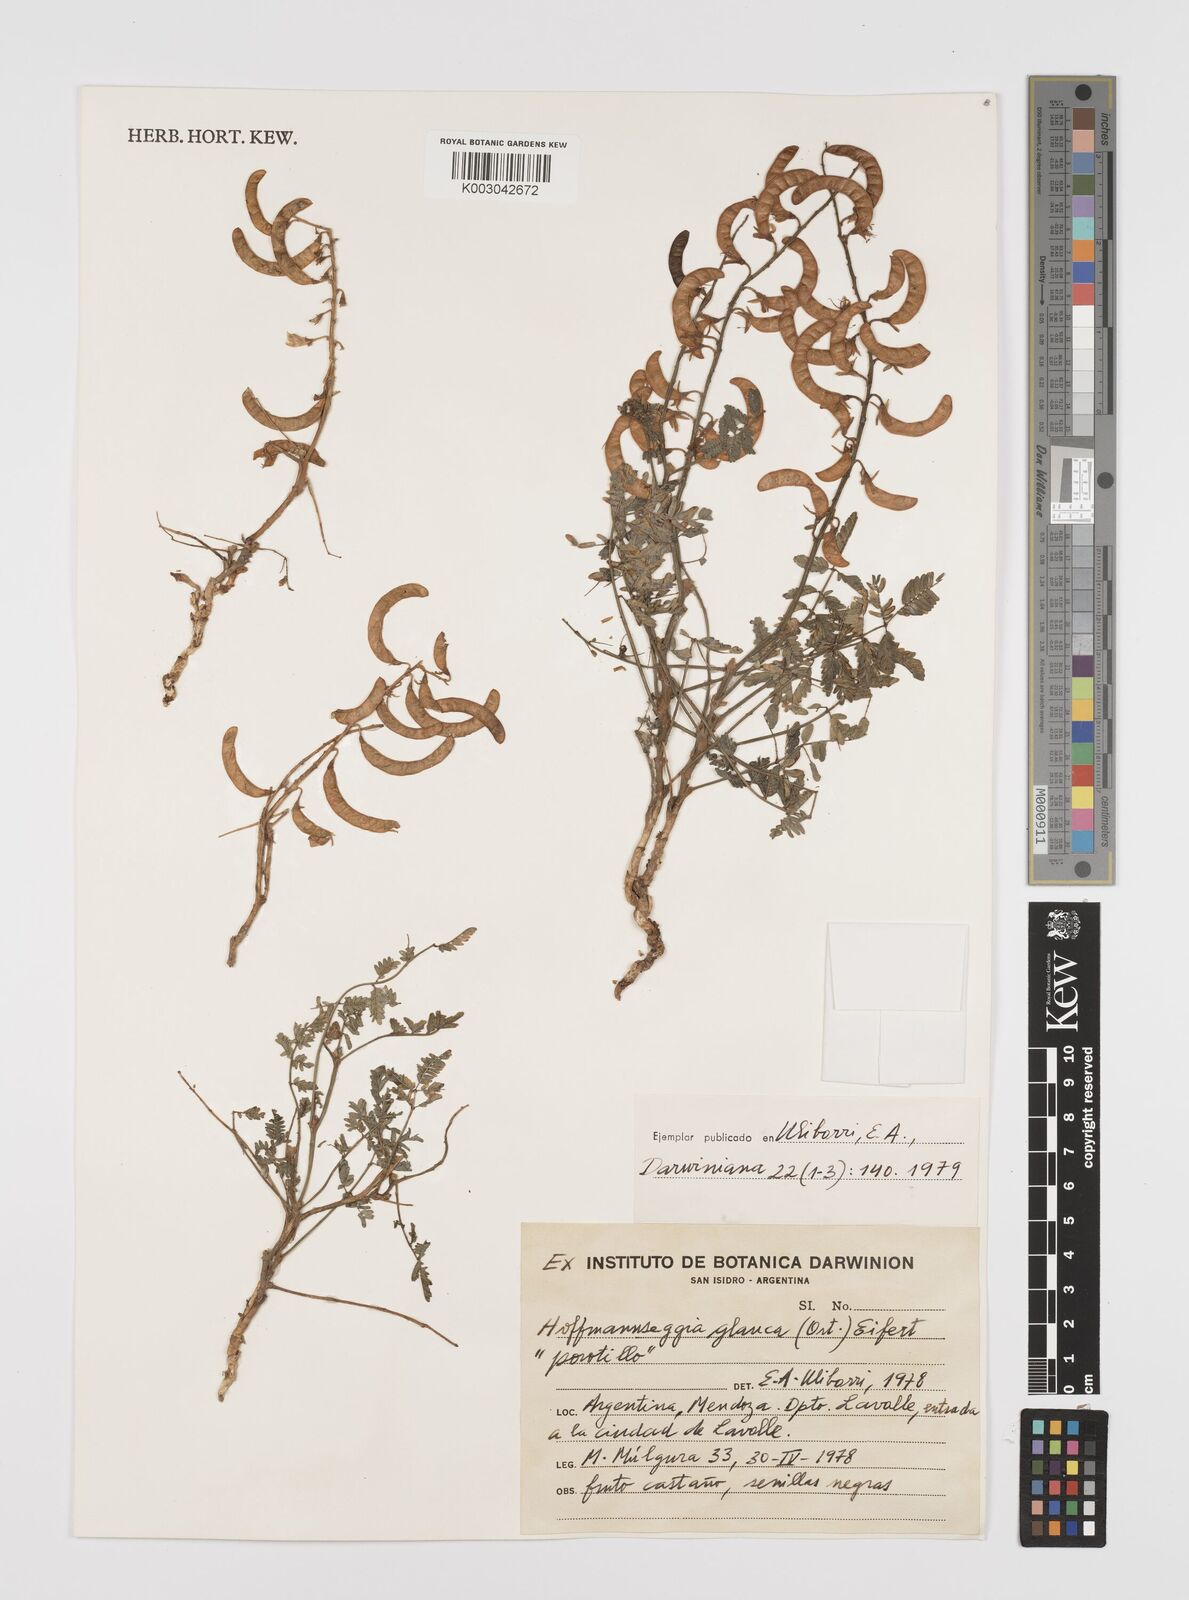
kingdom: Plantae
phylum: Tracheophyta
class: Magnoliopsida
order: Fabales
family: Fabaceae
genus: Hoffmannseggia
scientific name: Hoffmannseggia glauca
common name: Pignut
